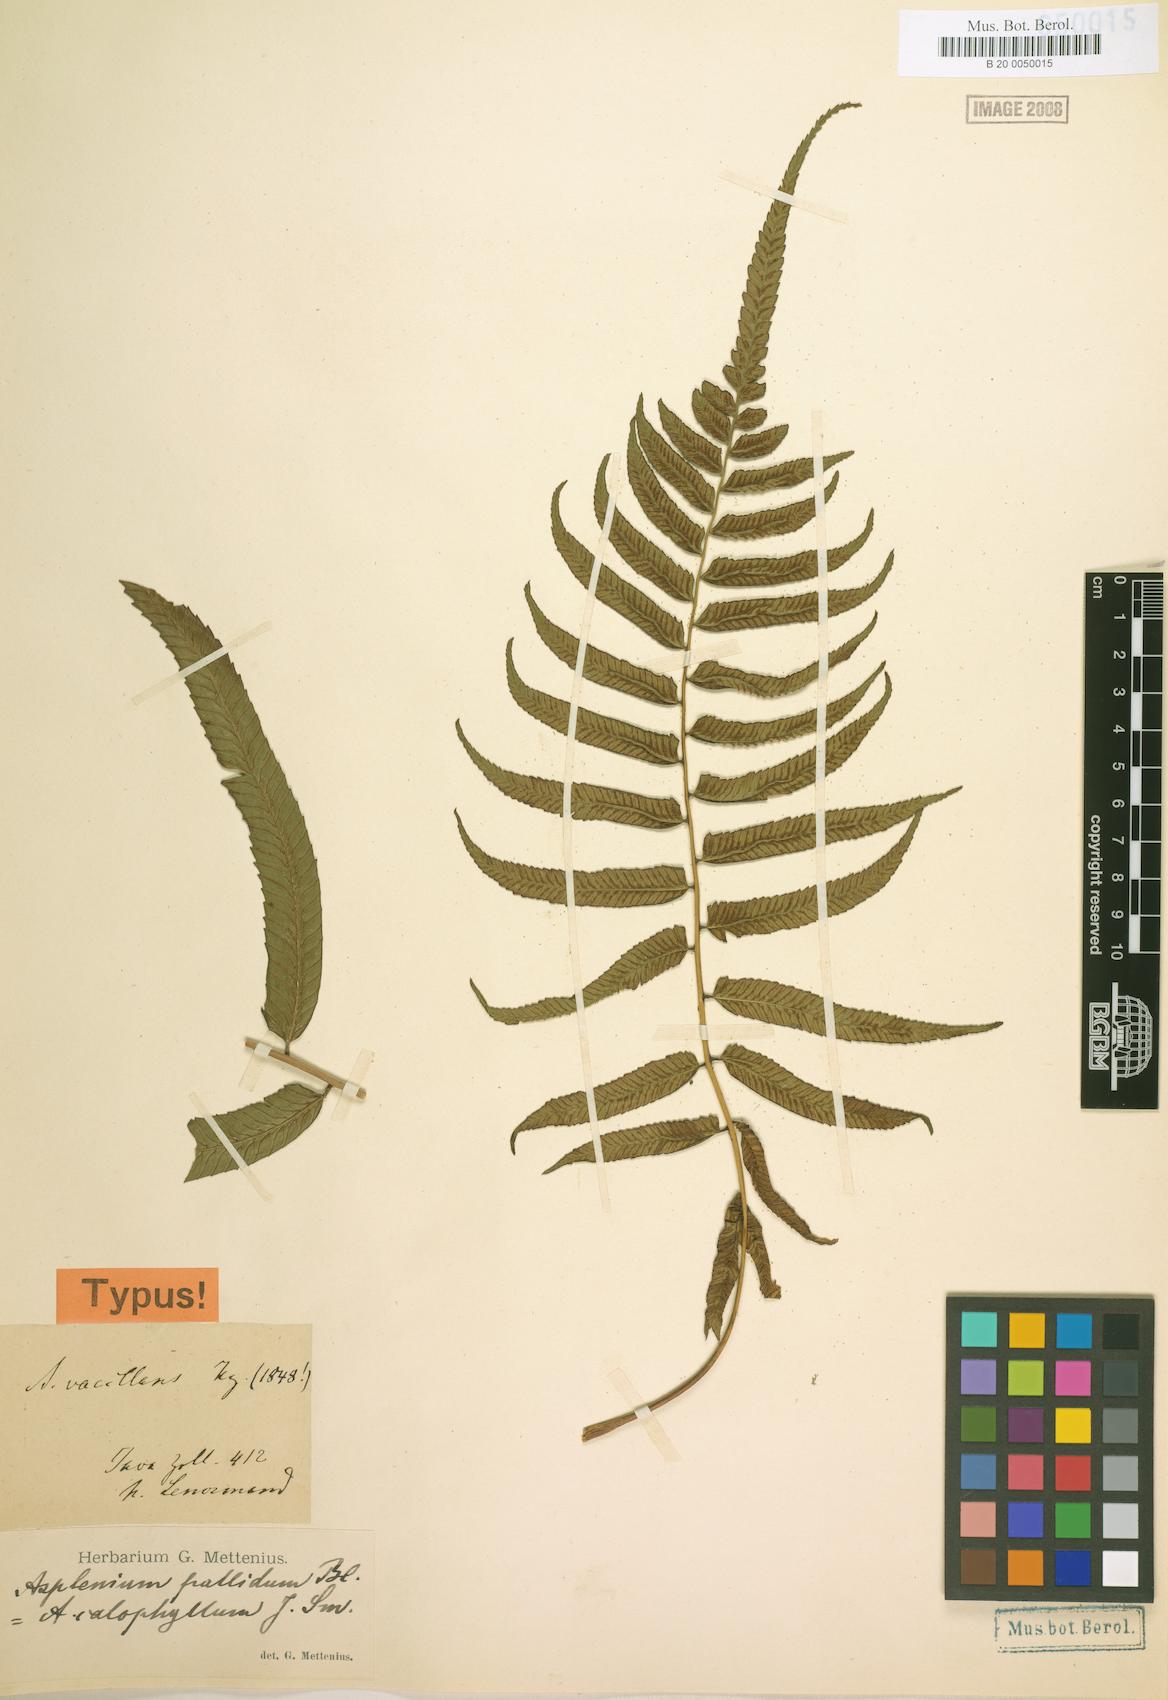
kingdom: Plantae
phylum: Tracheophyta
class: Polypodiopsida
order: Polypodiales
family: Athyriaceae
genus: Diplazium
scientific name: Diplazium pallidum
